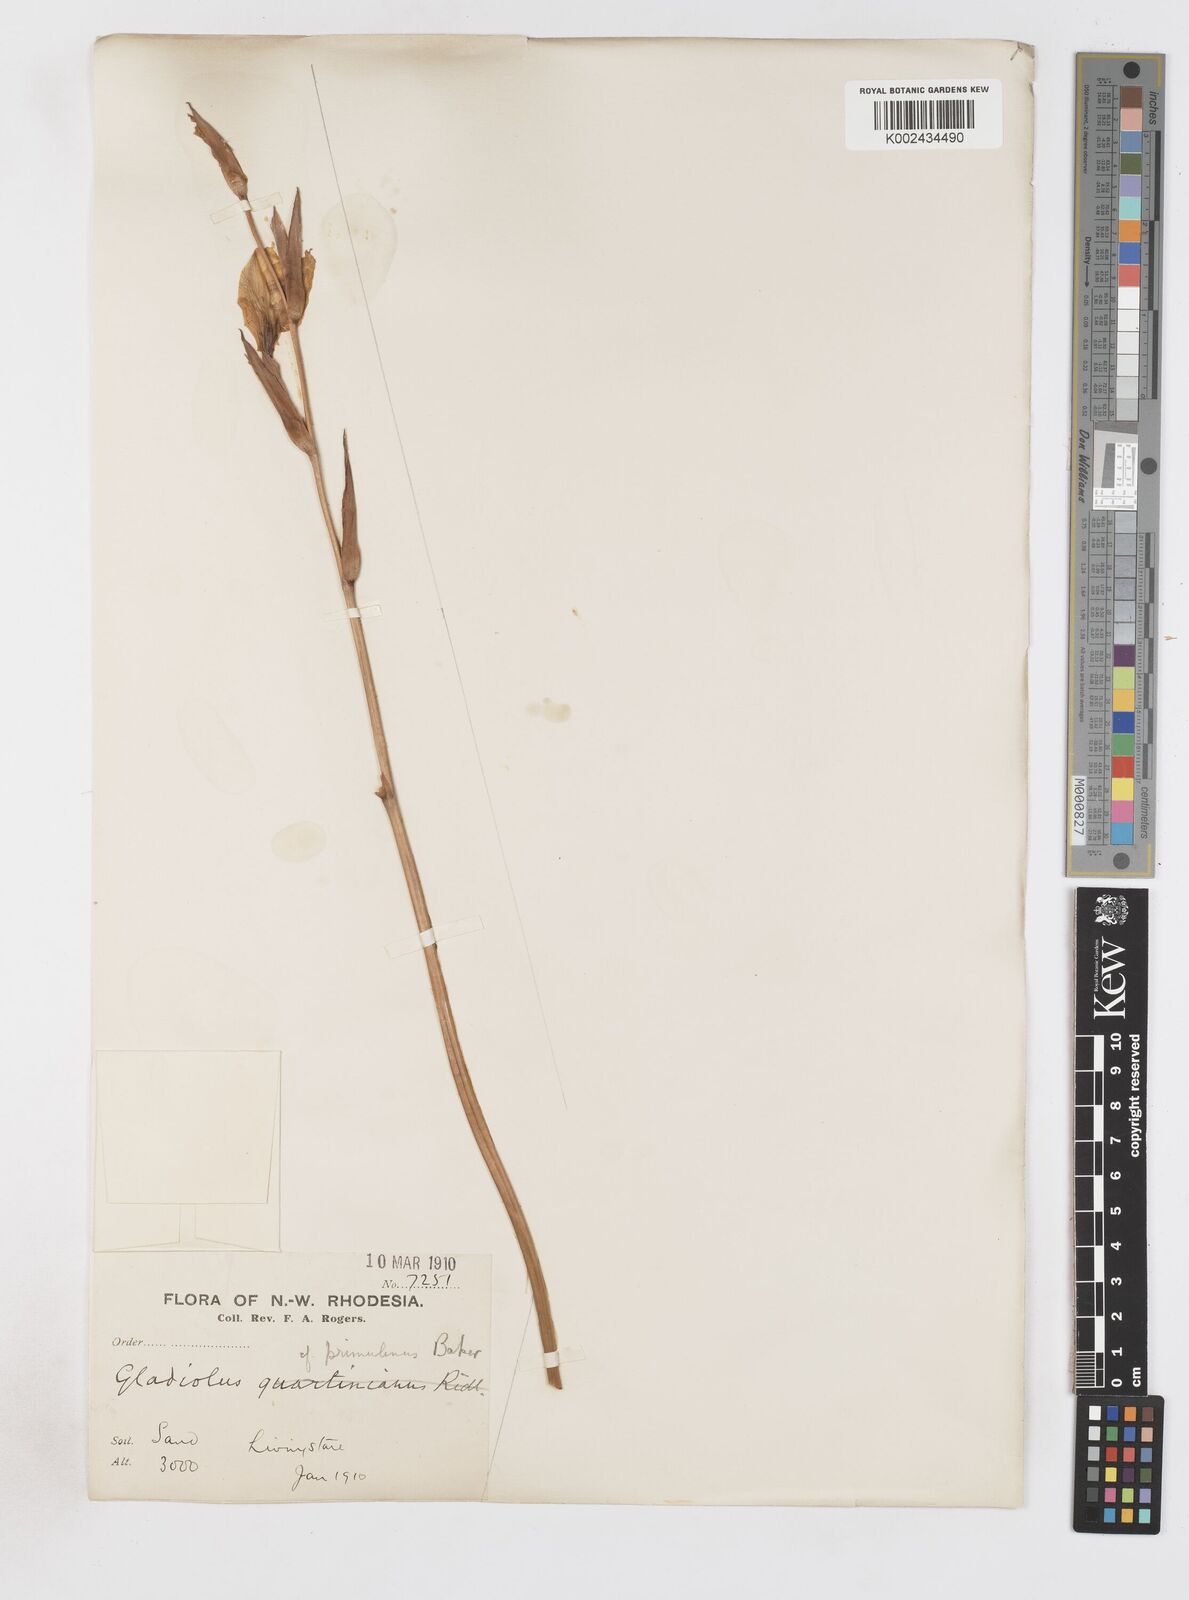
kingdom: Plantae
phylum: Tracheophyta
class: Liliopsida
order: Asparagales
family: Iridaceae
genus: Gladiolus
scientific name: Gladiolus dalenii
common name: Cornflag
